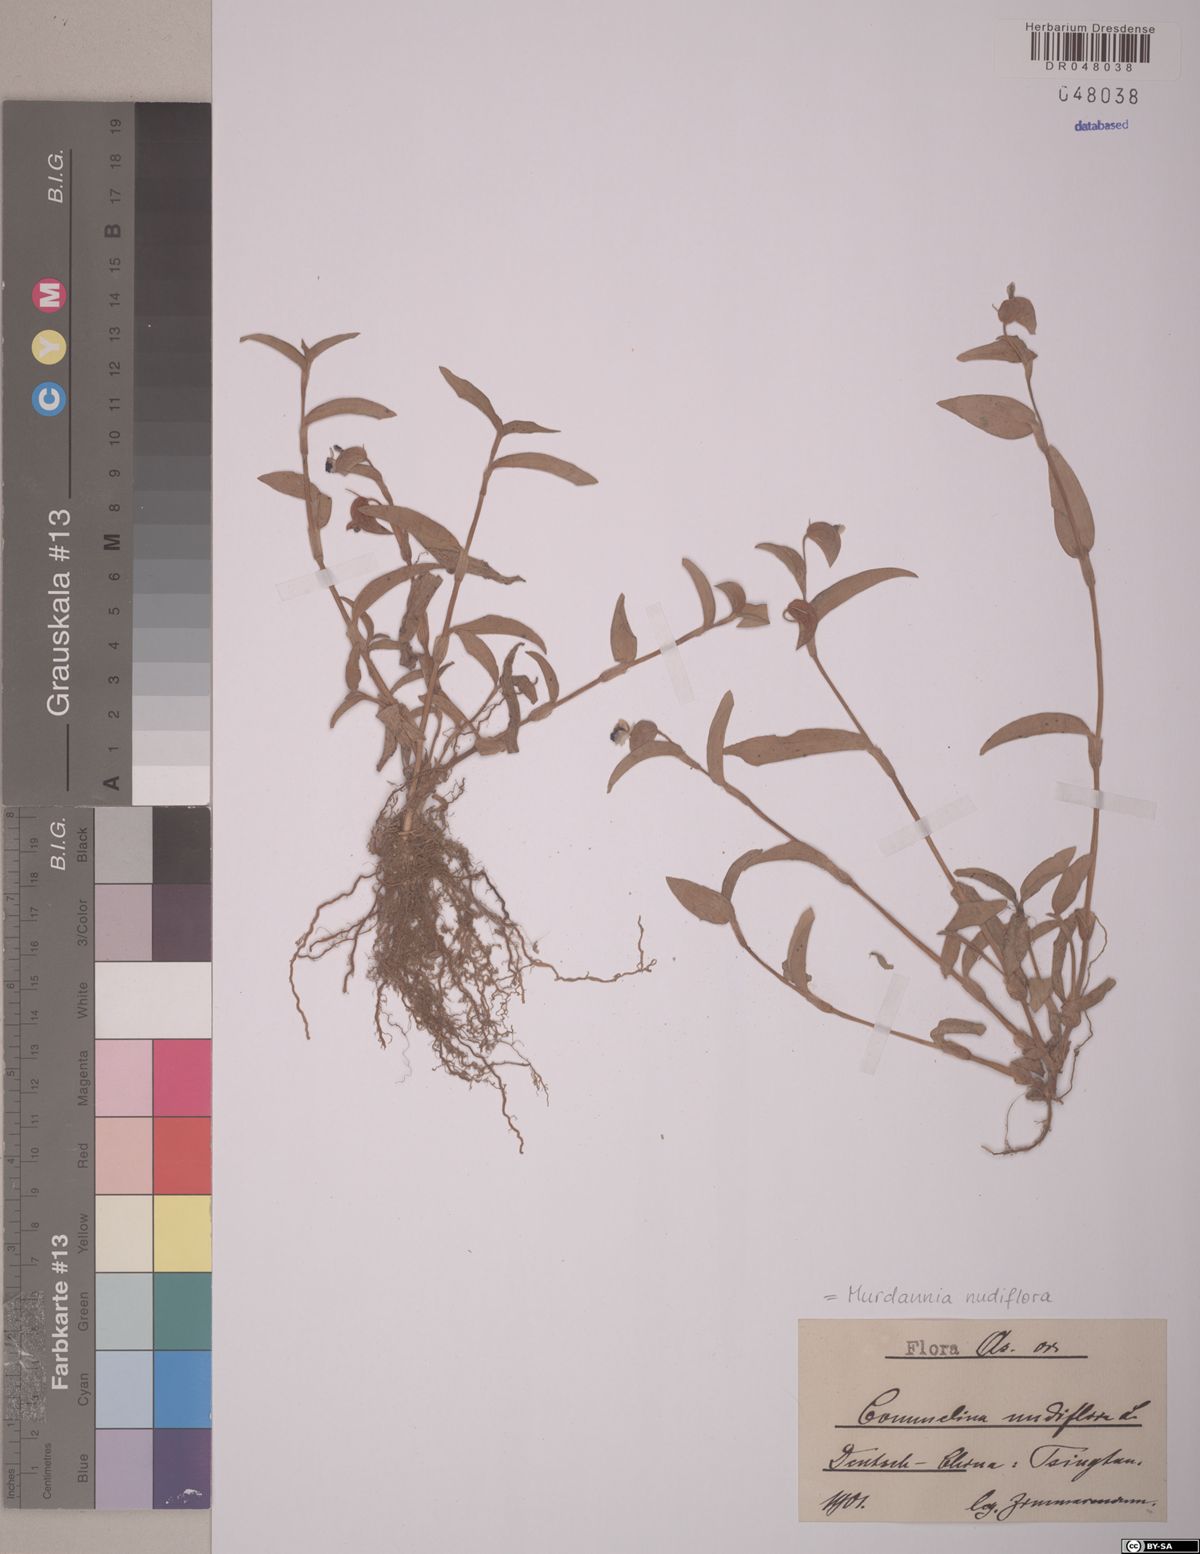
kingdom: Plantae
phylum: Tracheophyta
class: Liliopsida
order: Commelinales
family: Commelinaceae
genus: Murdannia
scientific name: Murdannia nudiflora
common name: Nakedstem dewflower
